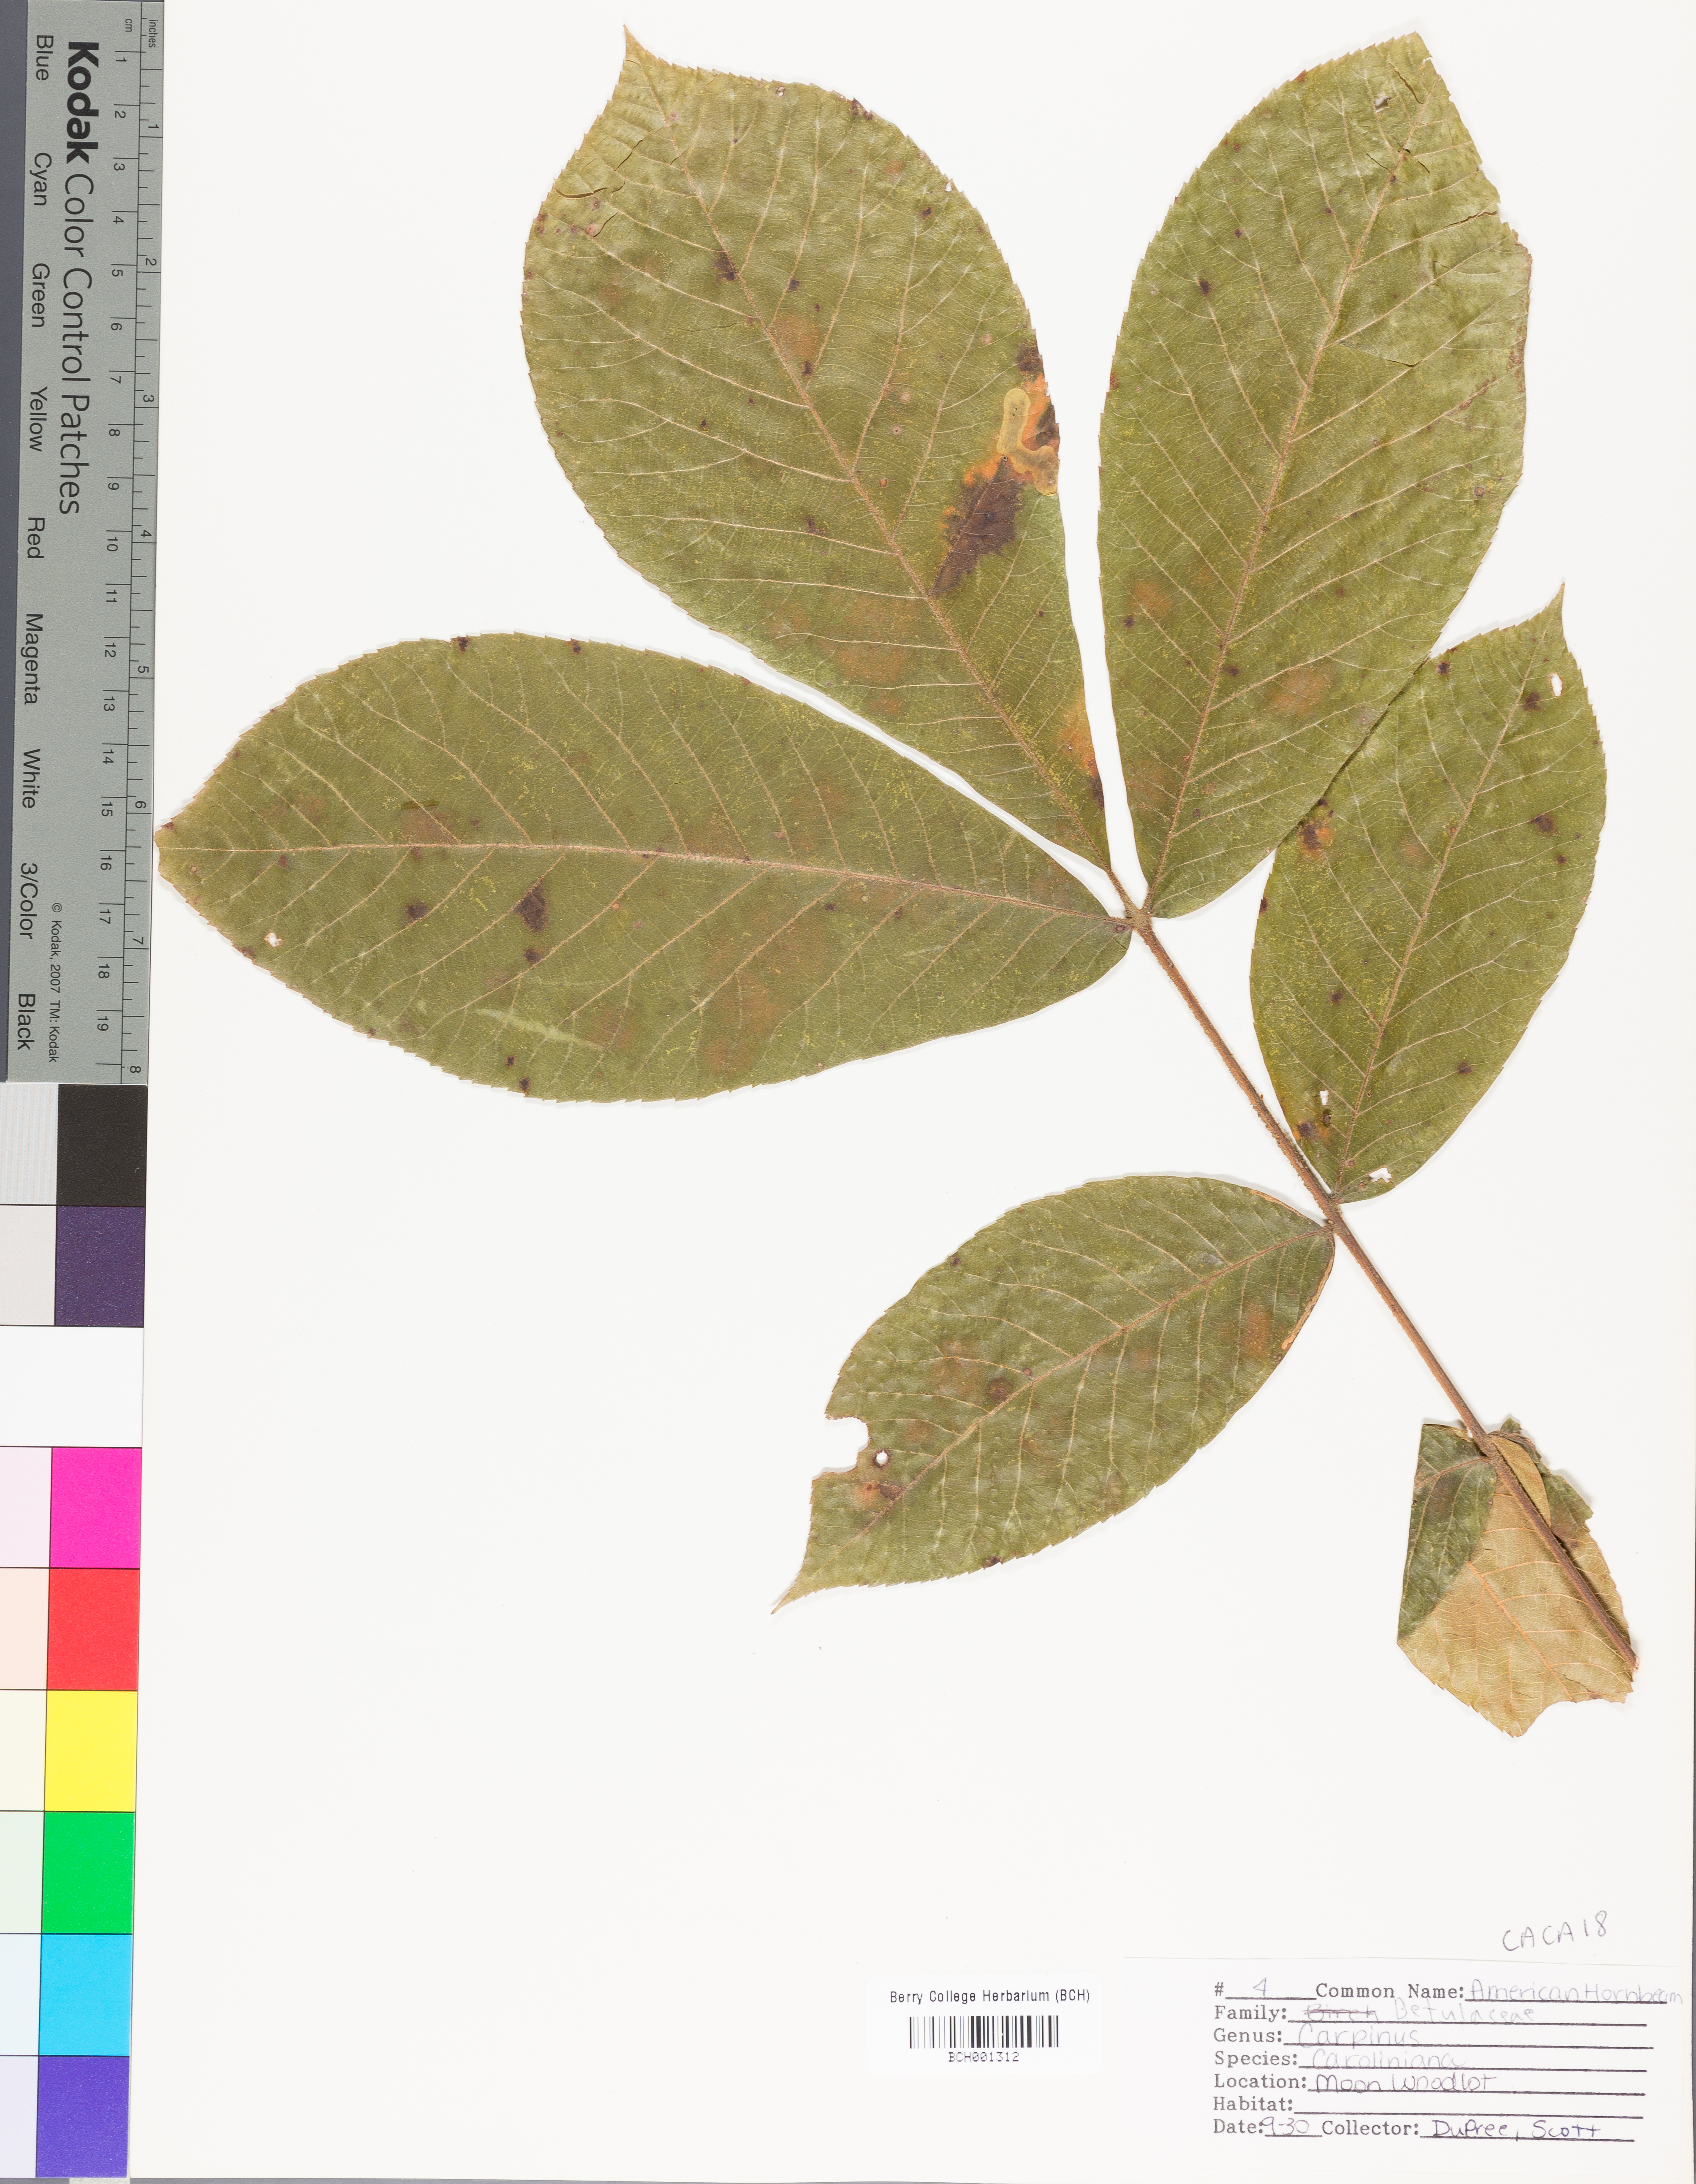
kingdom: Plantae
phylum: Tracheophyta
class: Magnoliopsida
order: Fagales
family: Betulaceae
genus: Carpinus
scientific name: Carpinus caroliniana
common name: American hornbeam
